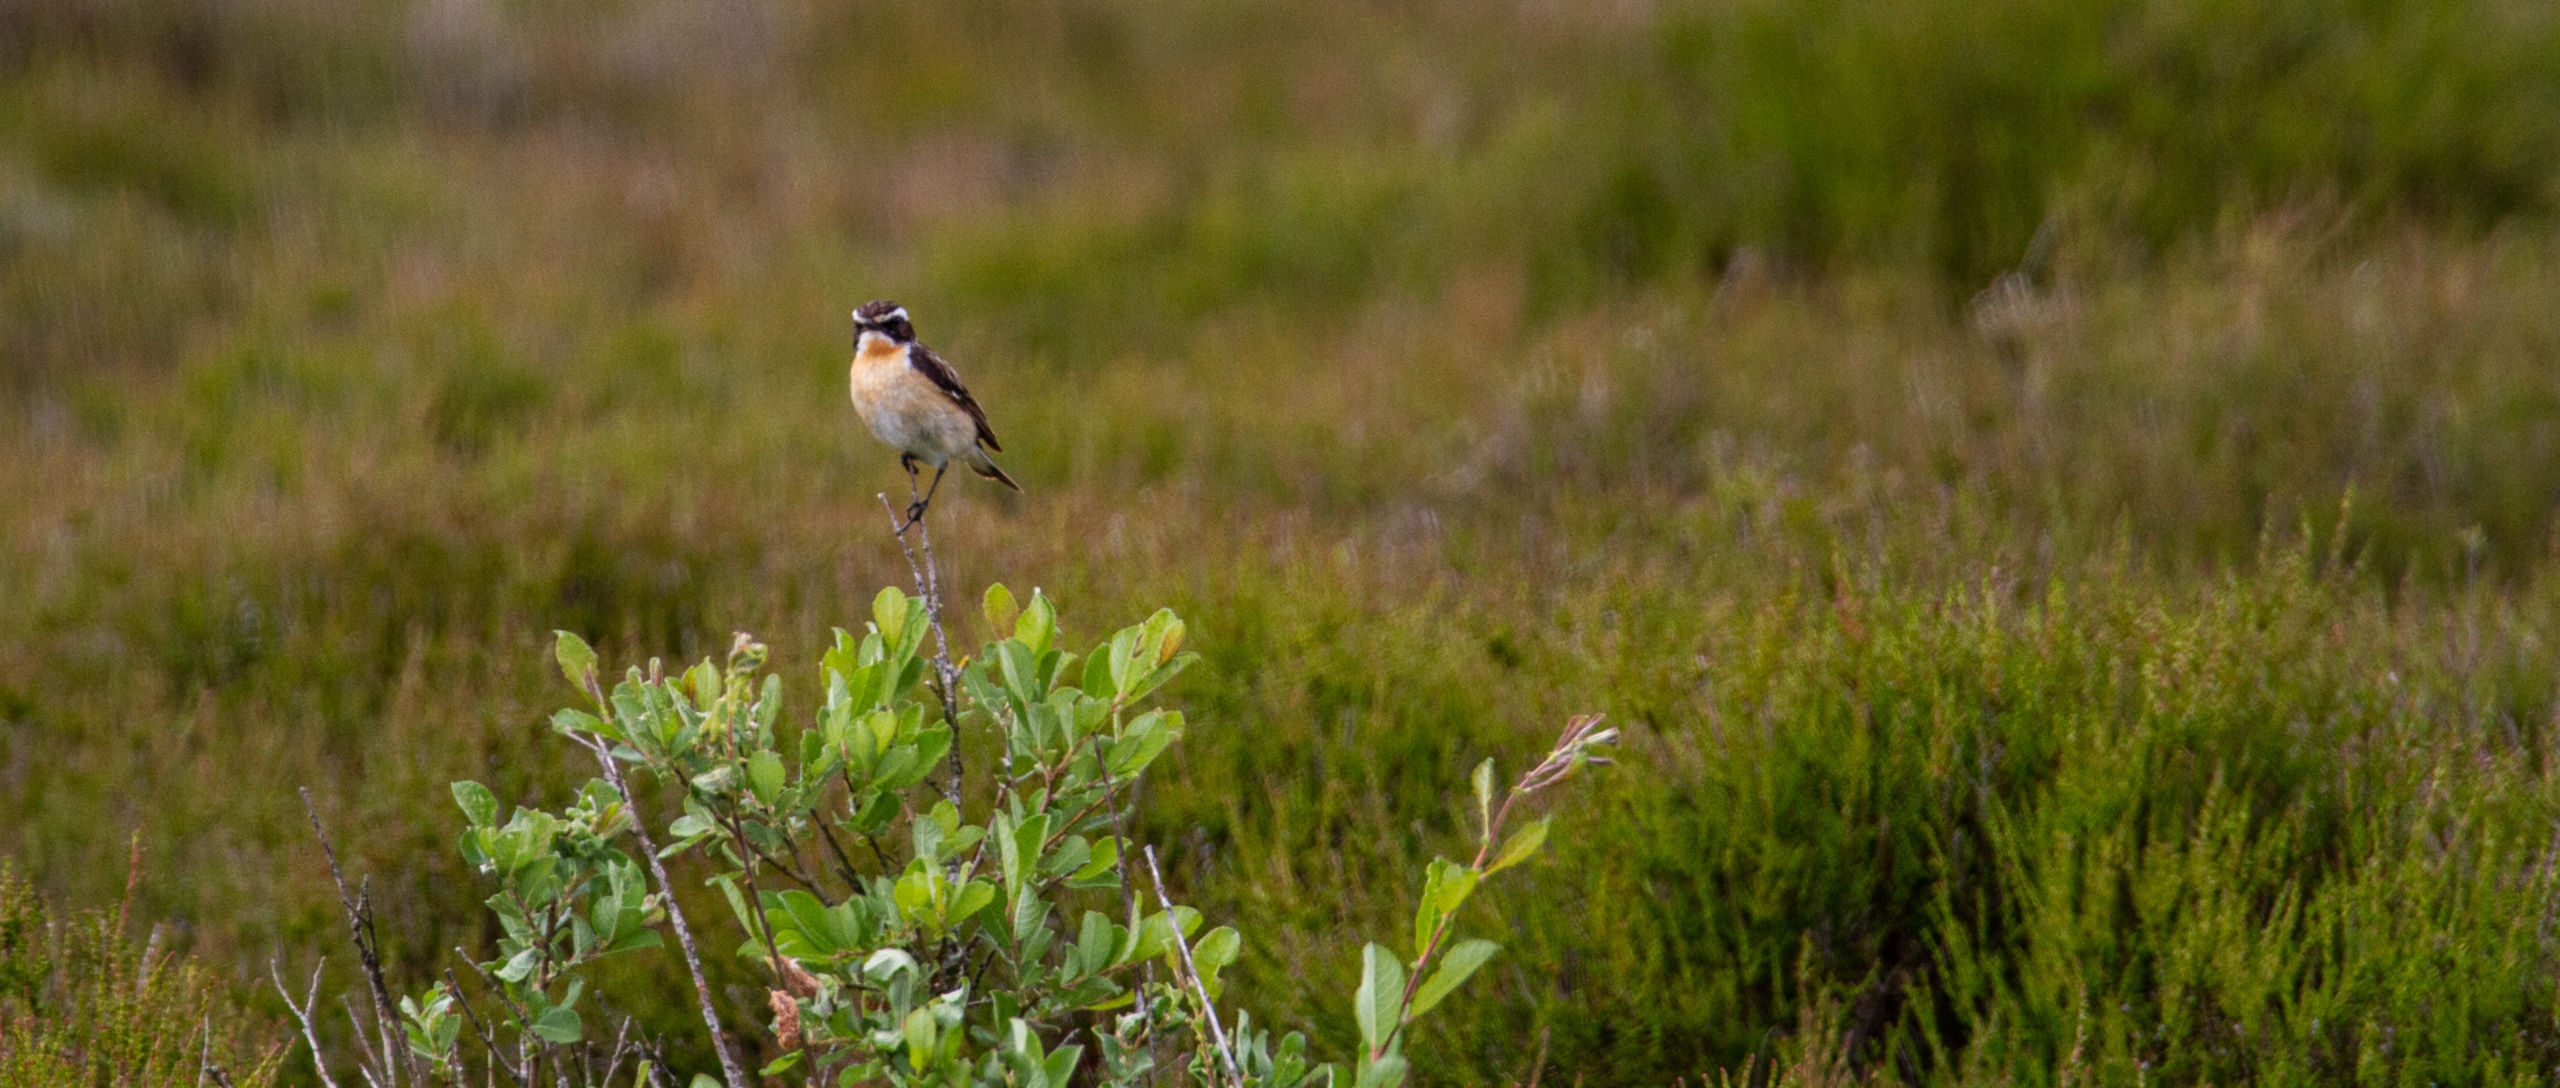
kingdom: Animalia
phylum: Chordata
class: Aves
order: Passeriformes
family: Muscicapidae
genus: Saxicola
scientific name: Saxicola rubetra
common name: Bynkefugl
